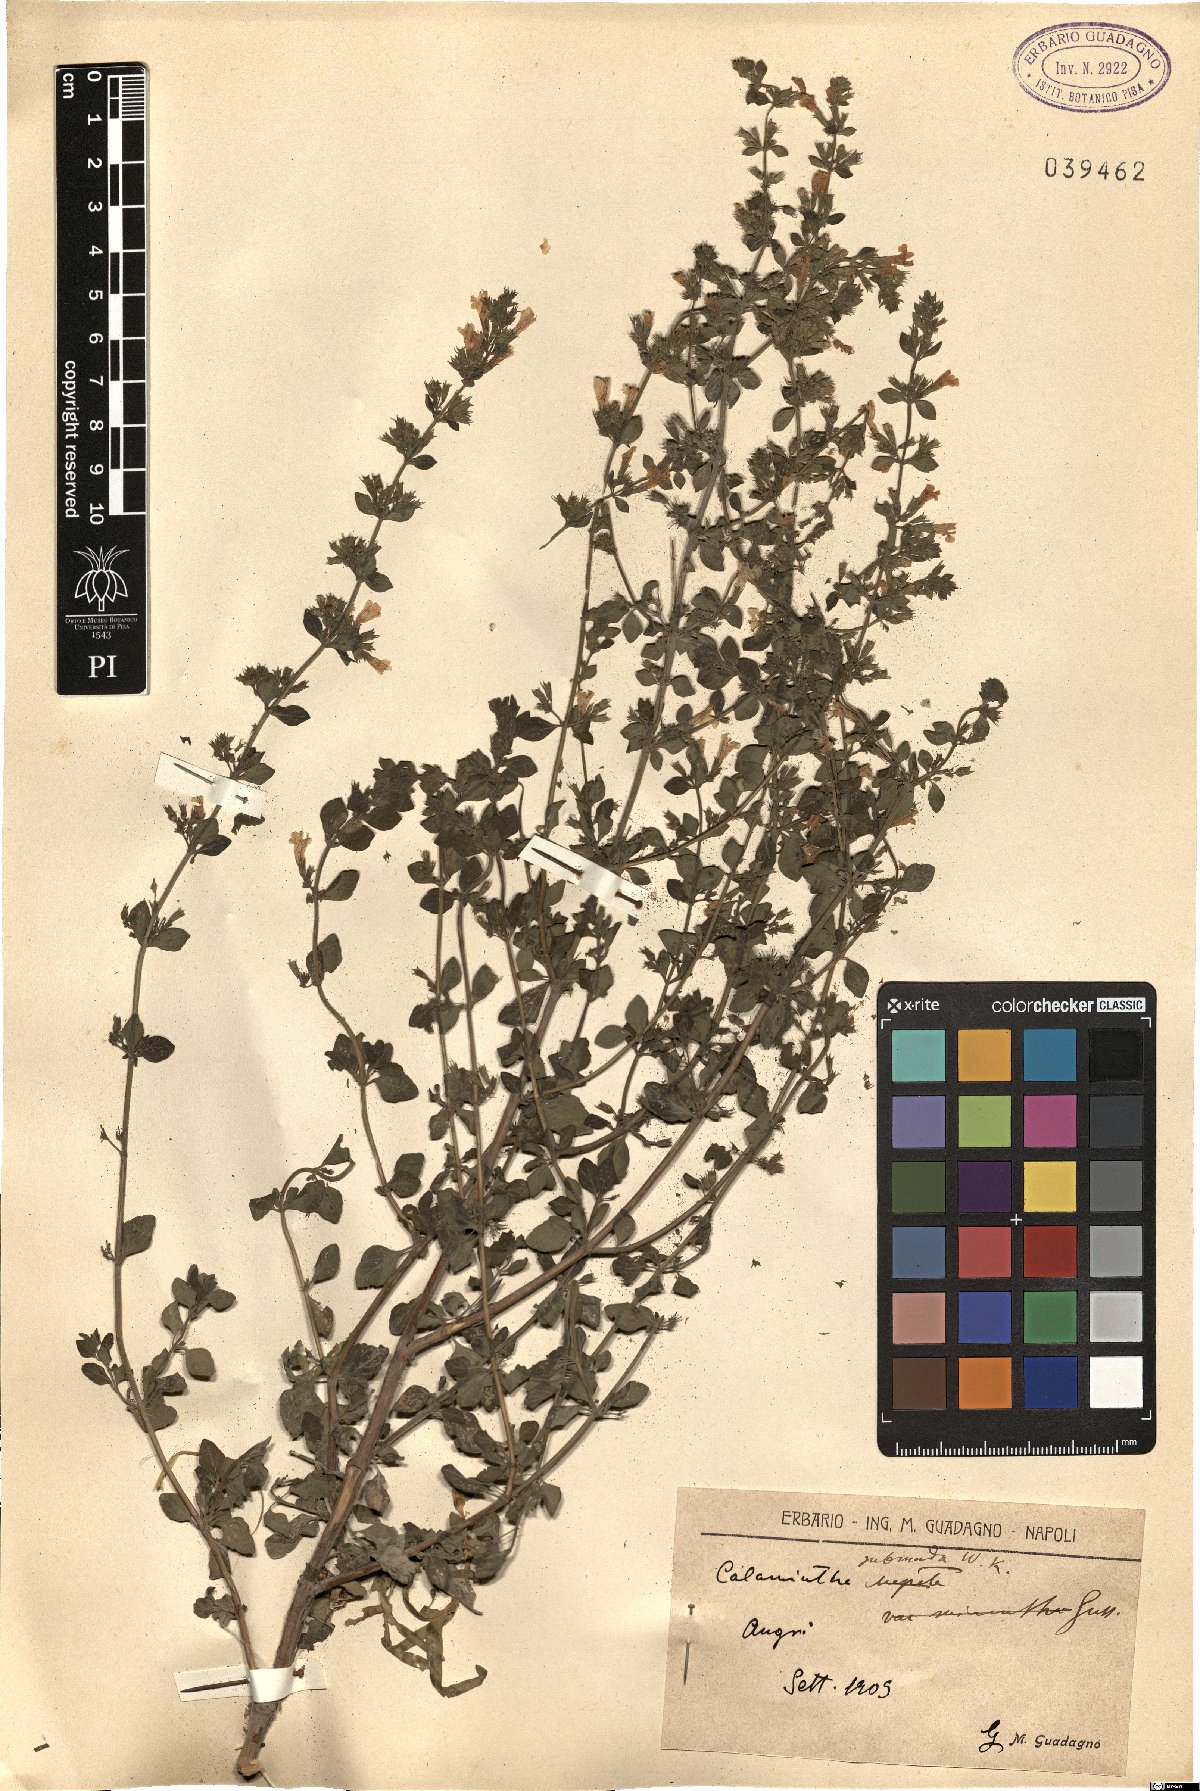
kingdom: Plantae
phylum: Tracheophyta
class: Magnoliopsida
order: Lamiales
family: Lamiaceae
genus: Clinopodium
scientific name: Clinopodium nepeta
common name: Lesser calamint
